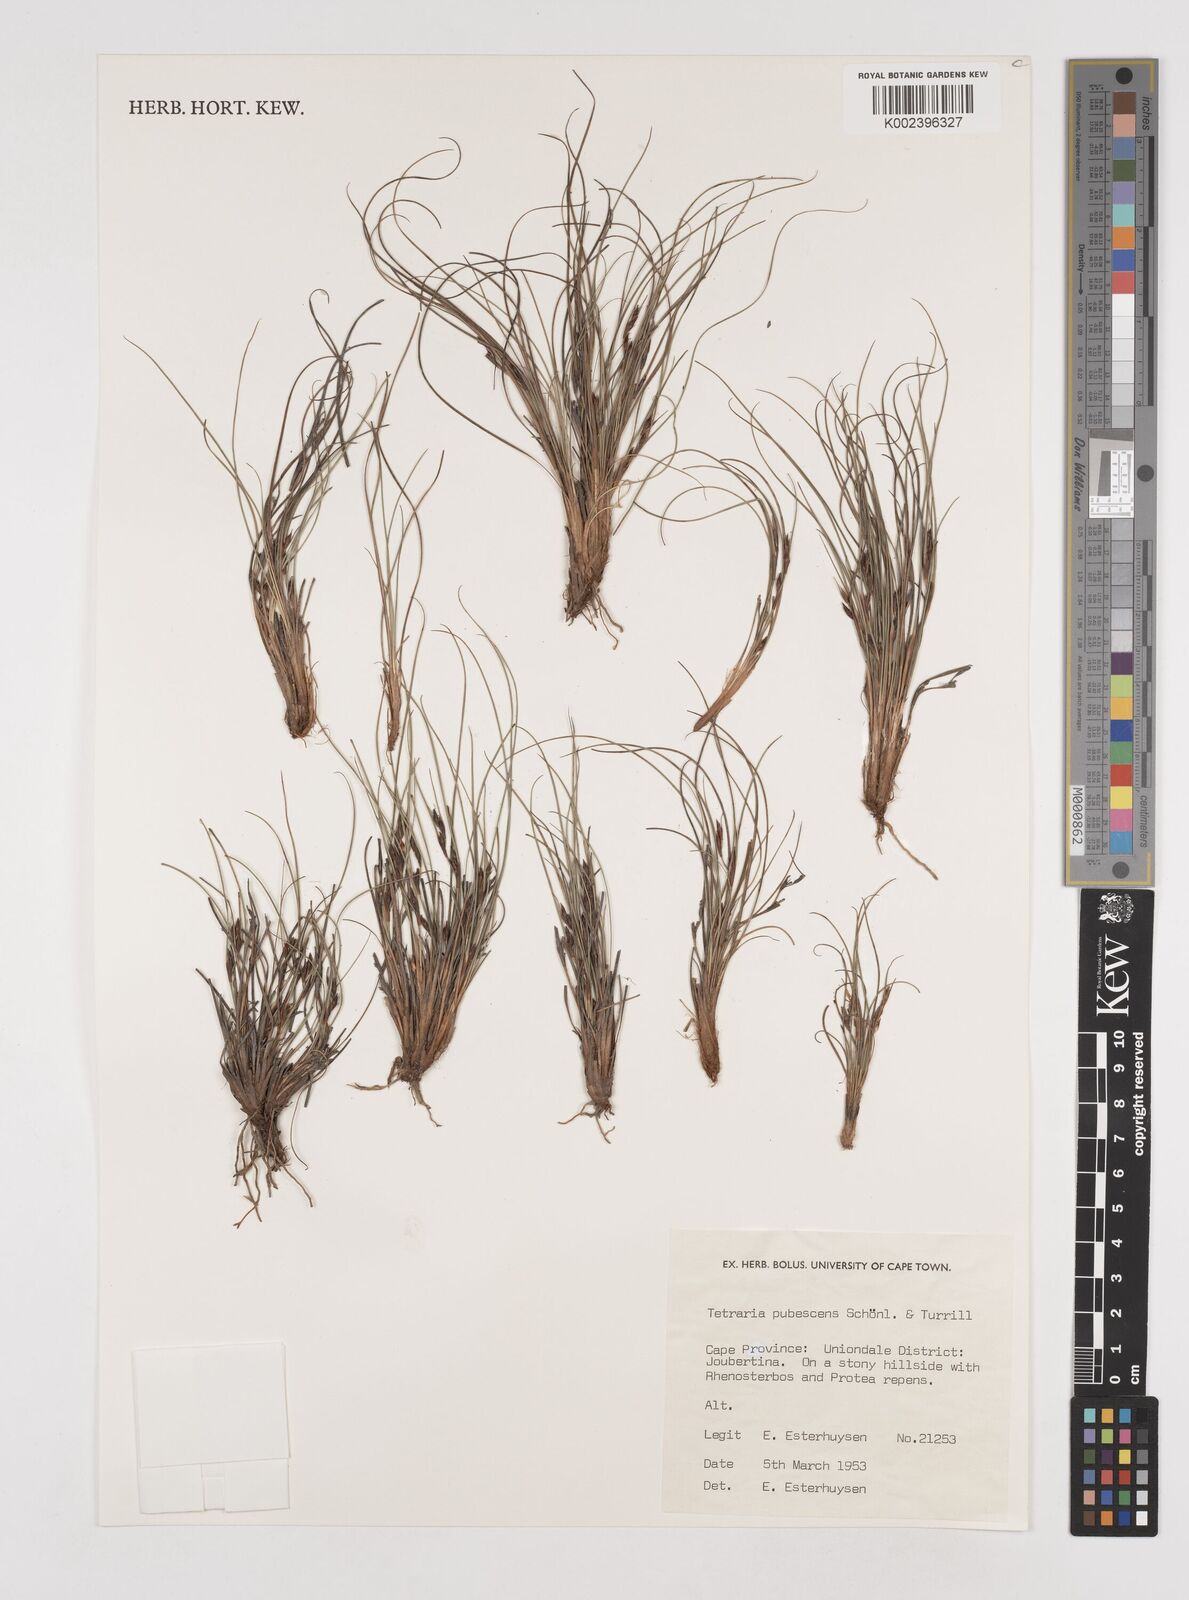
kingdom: Plantae
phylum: Tracheophyta
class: Liliopsida
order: Poales
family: Cyperaceae
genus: Tetraria
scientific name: Tetraria pubescens
